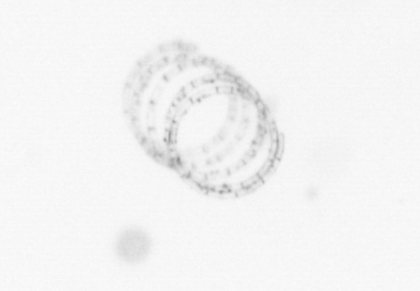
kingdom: Chromista
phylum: Ochrophyta
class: Bacillariophyceae
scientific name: Bacillariophyceae
